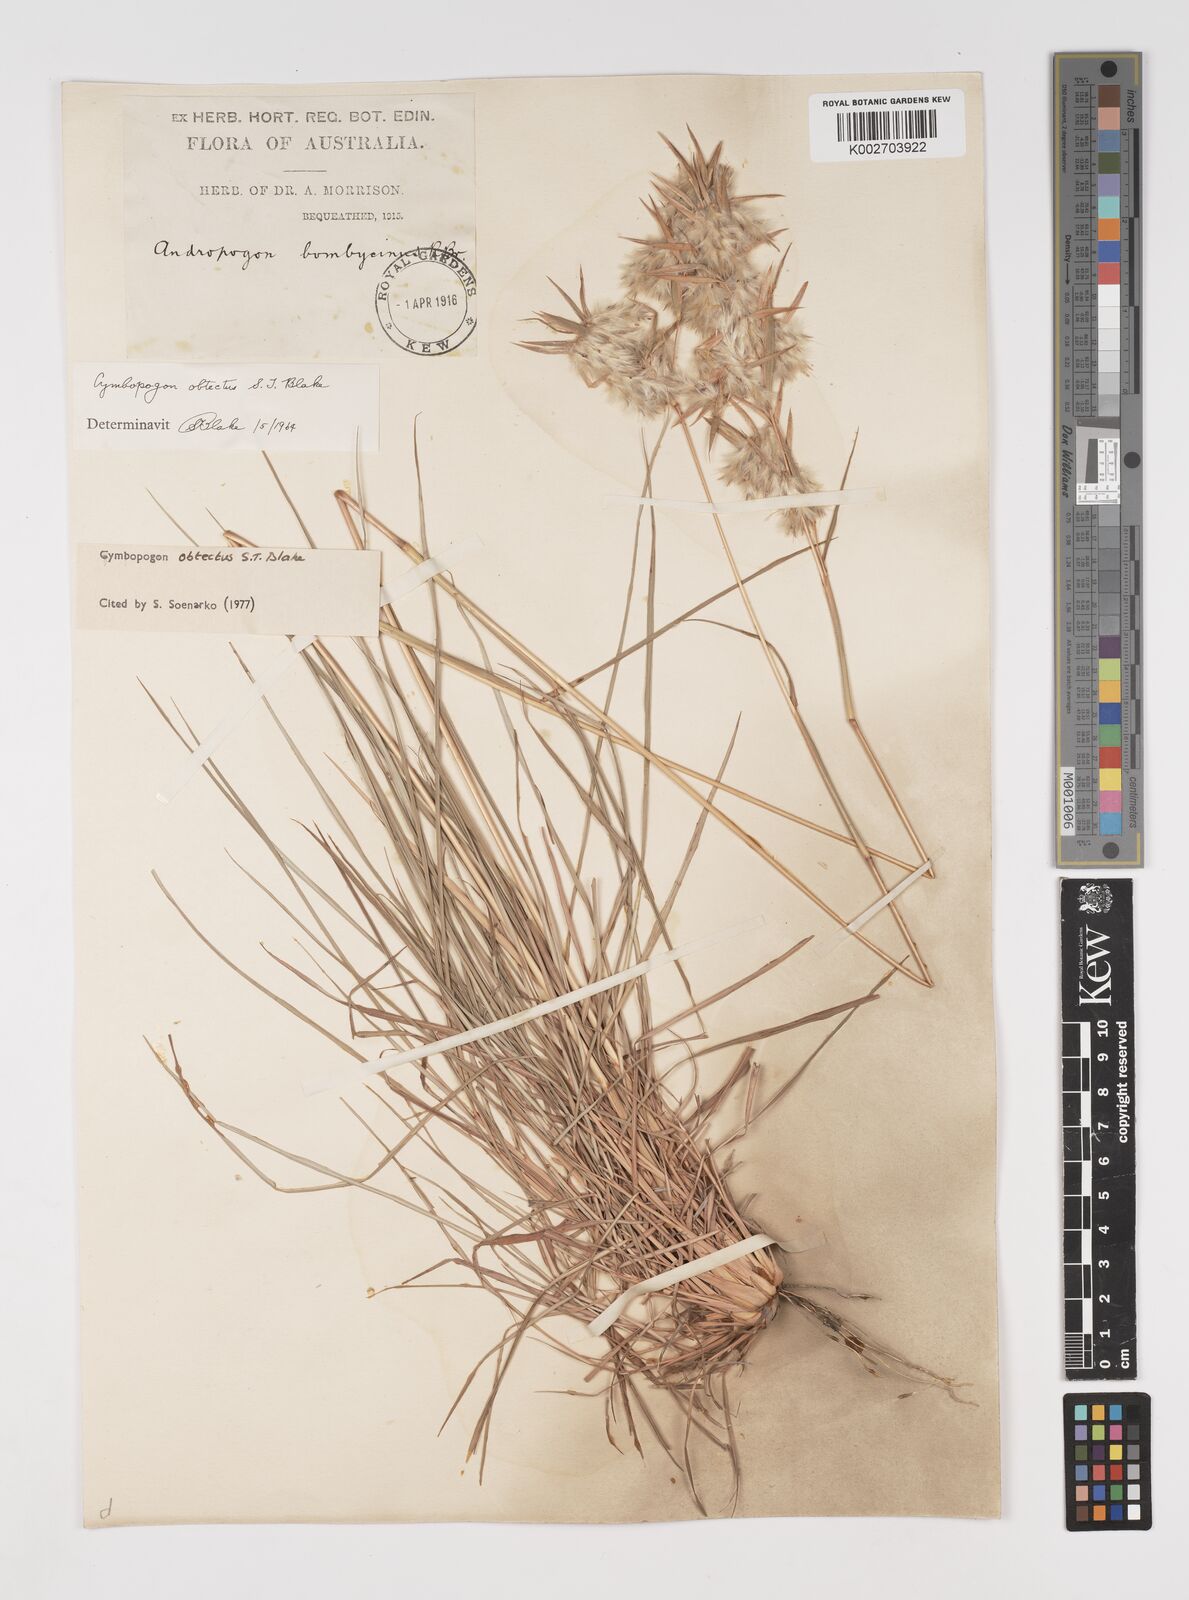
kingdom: Plantae
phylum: Tracheophyta
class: Liliopsida
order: Poales
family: Poaceae
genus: Cymbopogon
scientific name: Cymbopogon obtectus
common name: Silky heads
